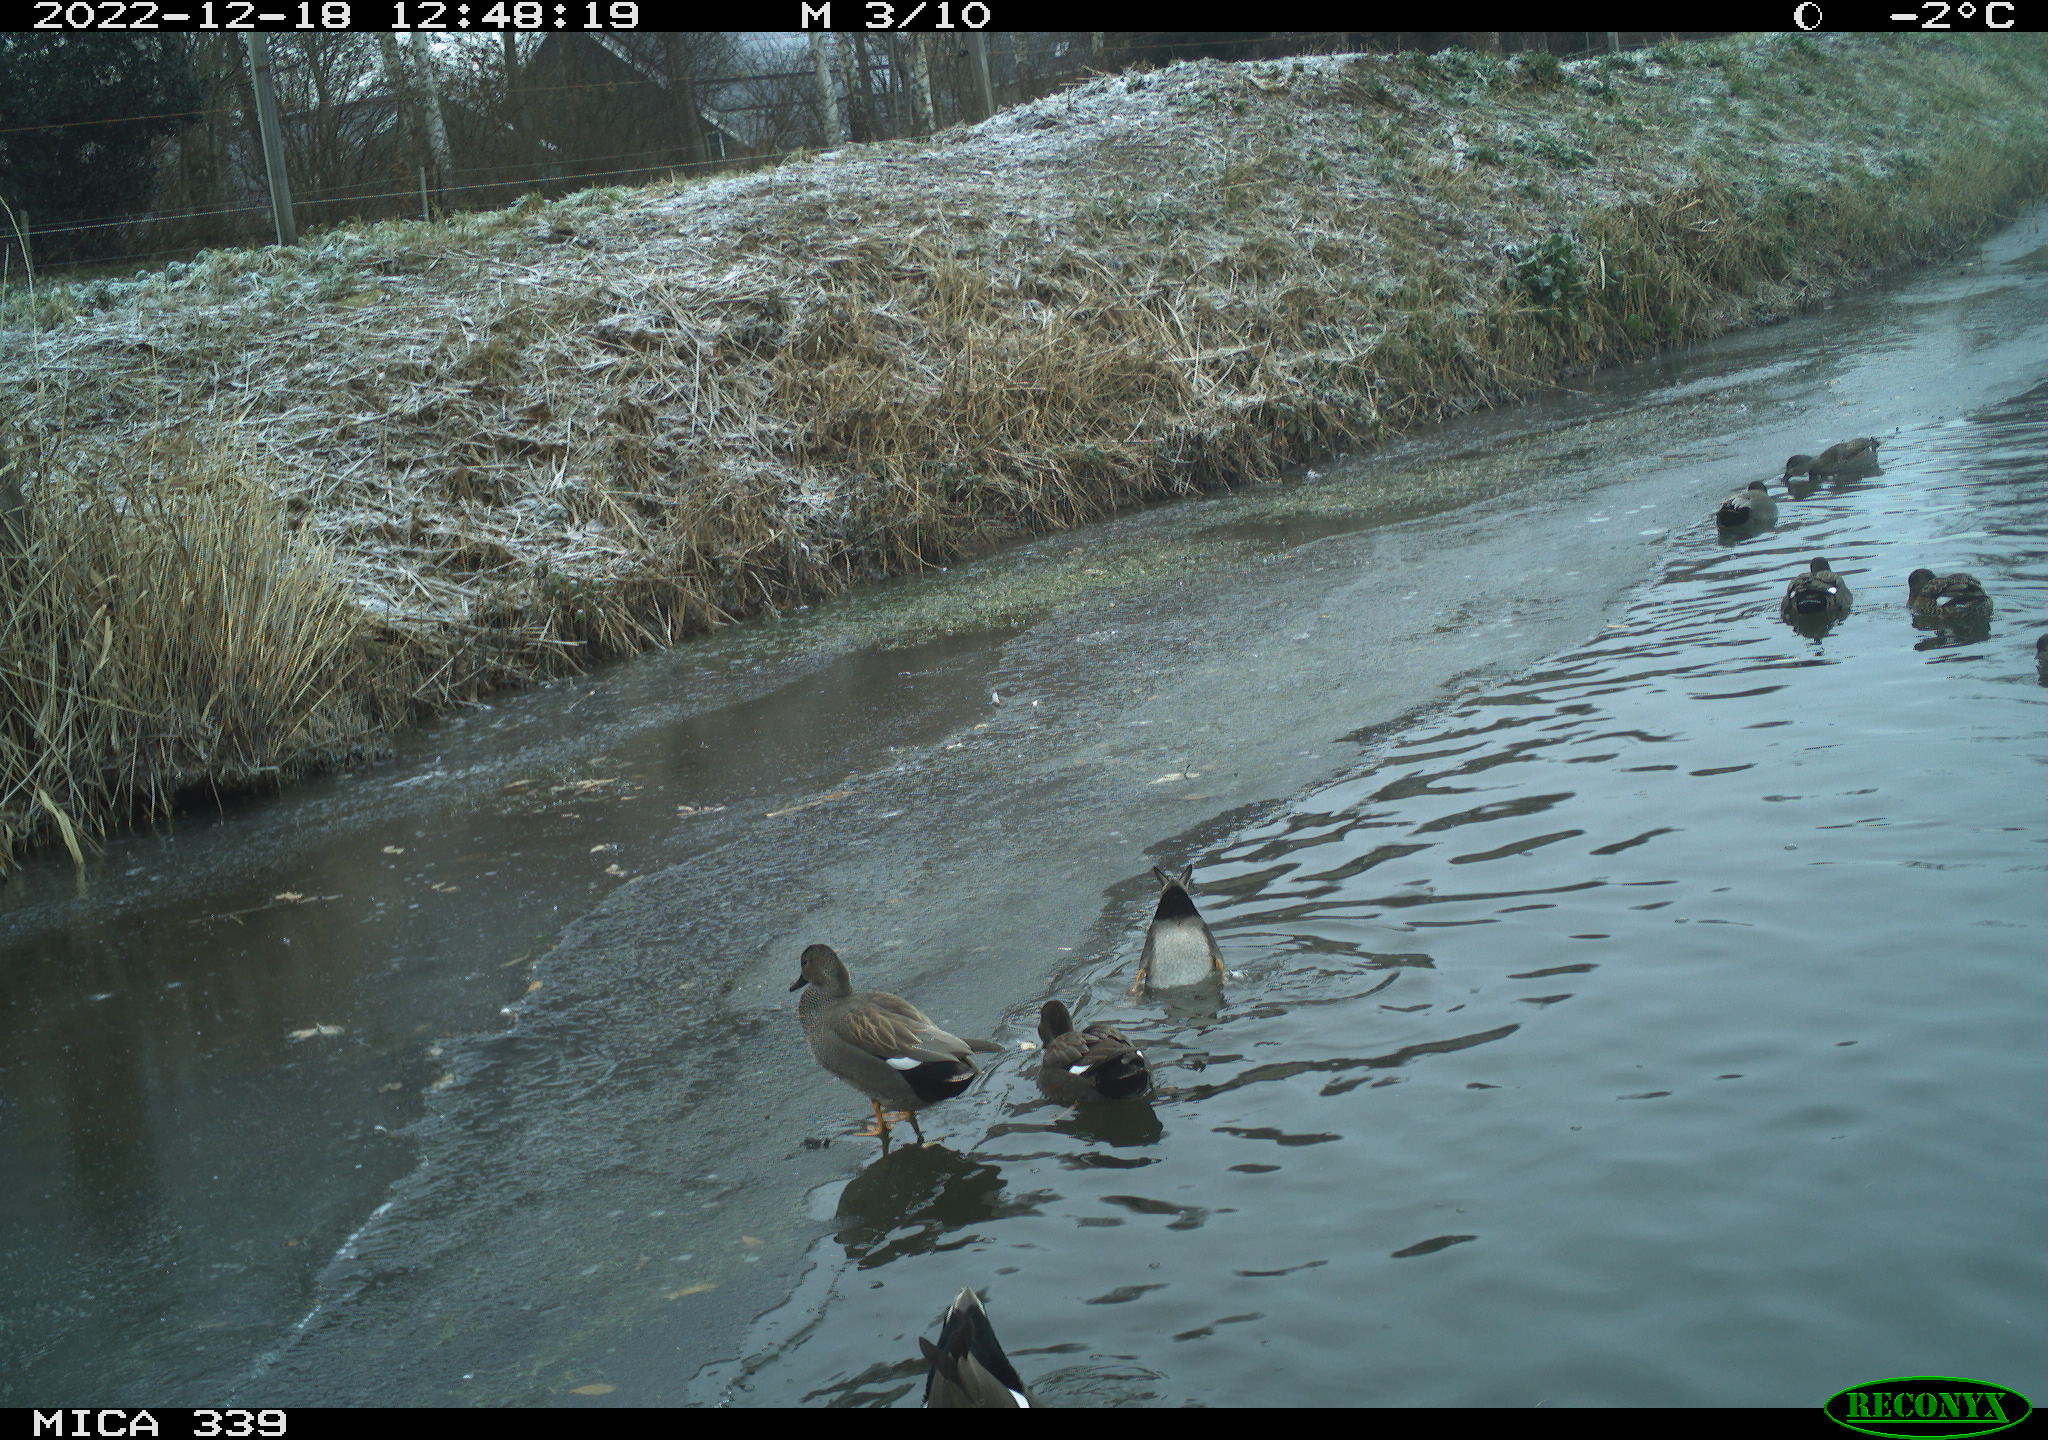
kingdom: Animalia
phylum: Chordata
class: Aves
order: Gruiformes
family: Rallidae
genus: Gallinula
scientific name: Gallinula chloropus
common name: Common moorhen
